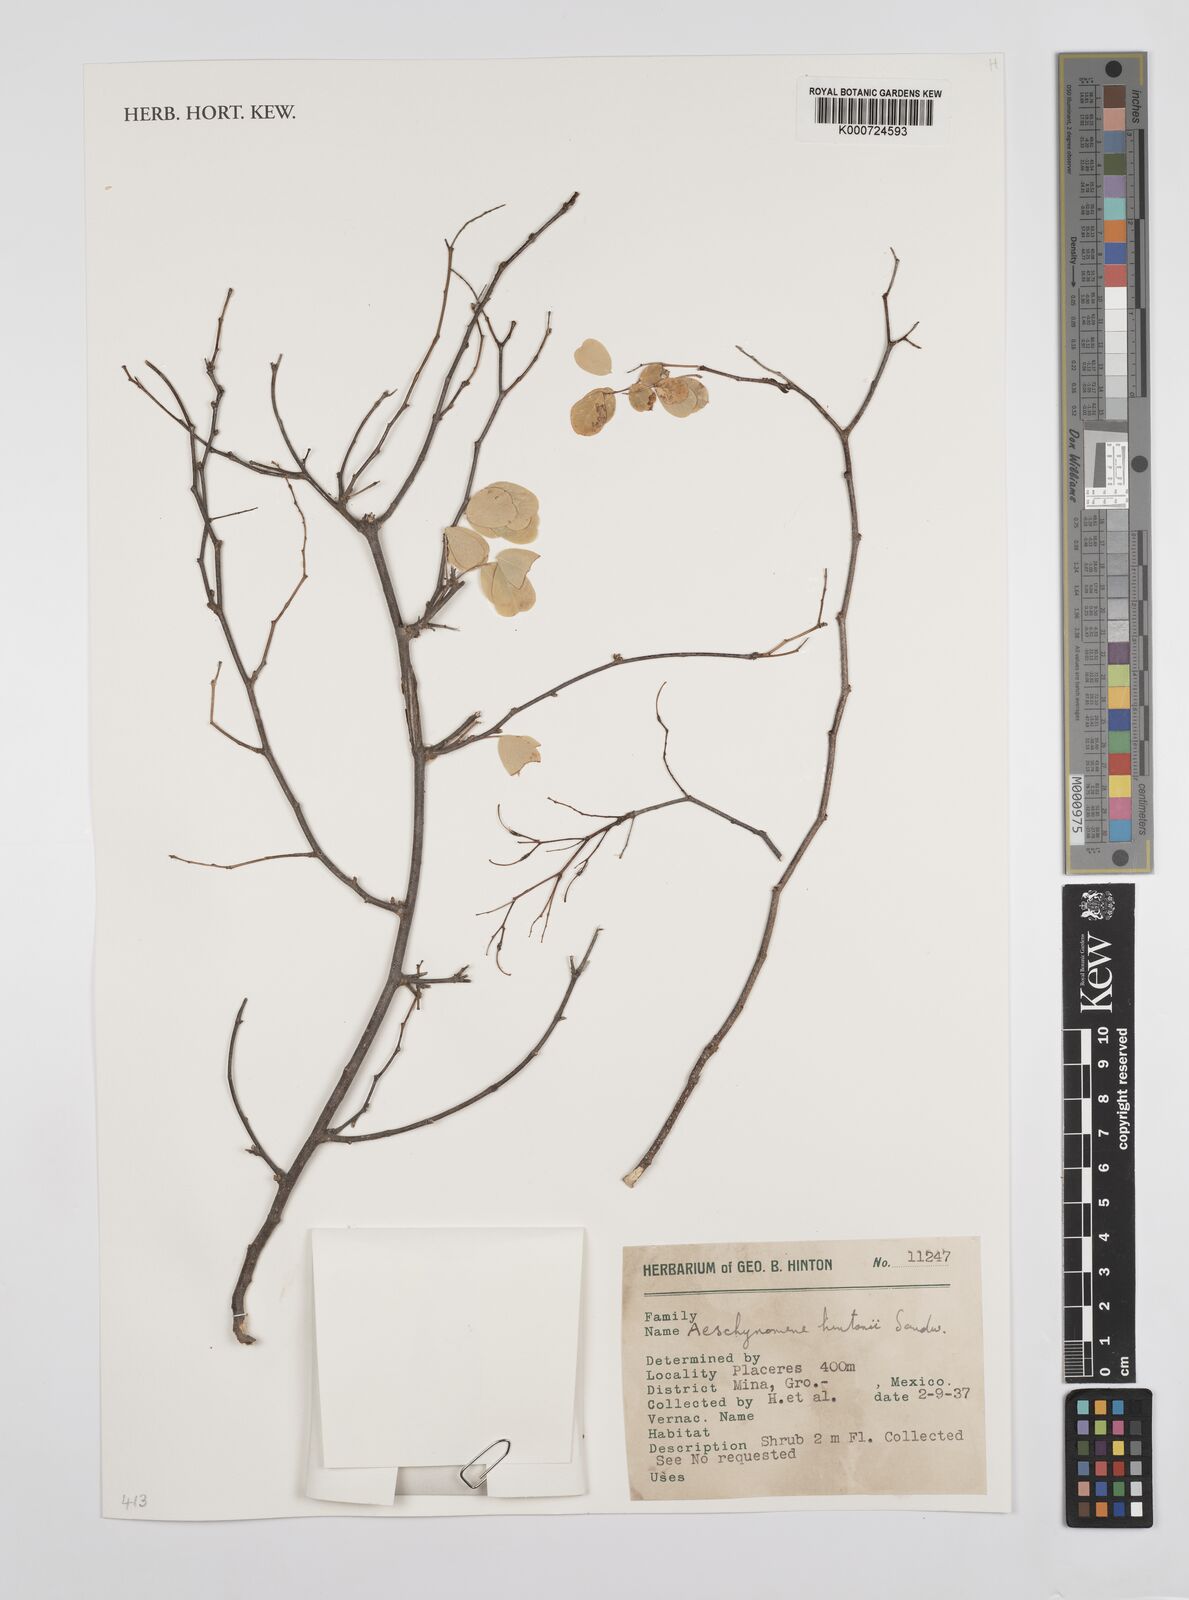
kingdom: Plantae
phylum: Tracheophyta
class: Magnoliopsida
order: Fabales
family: Fabaceae
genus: Ctenodon
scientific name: Ctenodon hintonii
